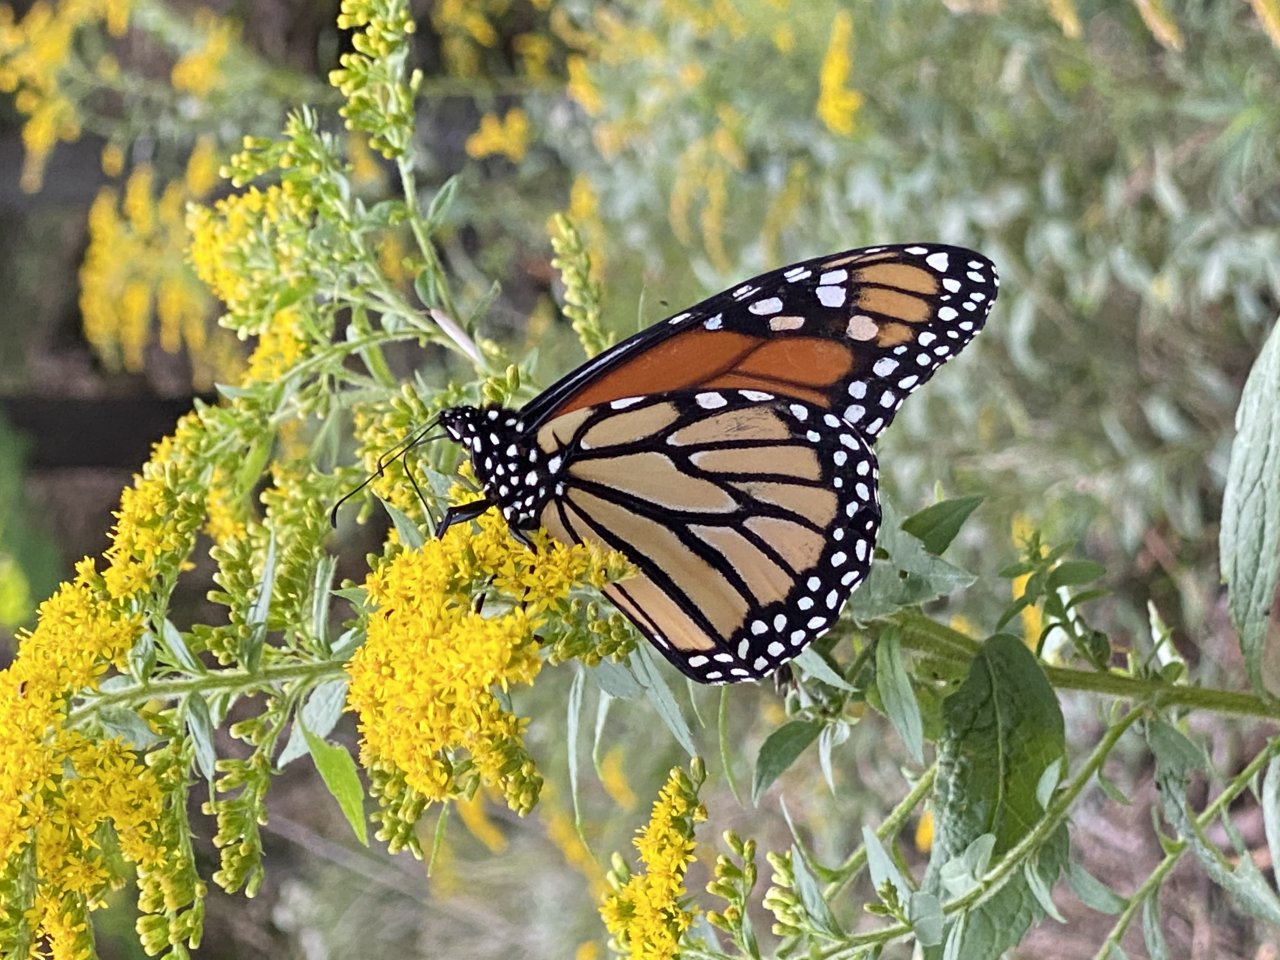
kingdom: Animalia
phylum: Arthropoda
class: Insecta
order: Lepidoptera
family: Nymphalidae
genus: Danaus
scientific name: Danaus plexippus
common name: Monarch
